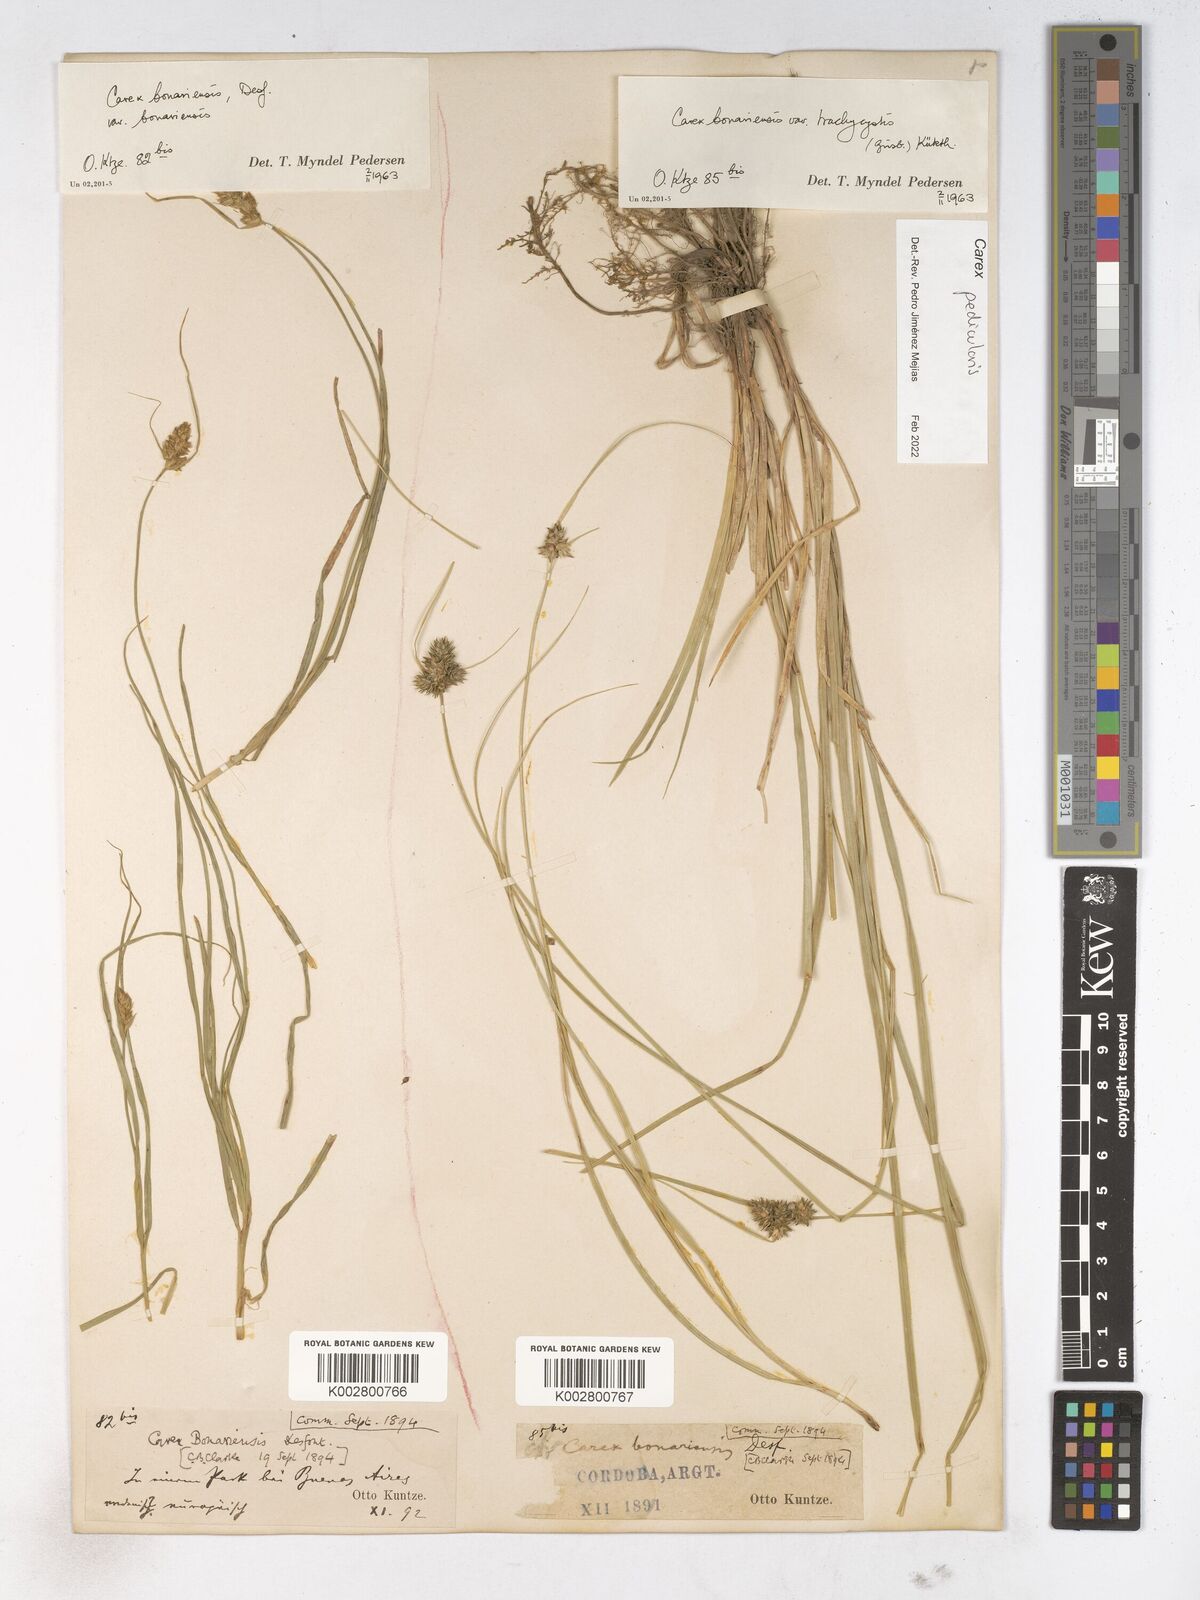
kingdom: Plantae
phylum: Tracheophyta
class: Liliopsida
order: Poales
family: Cyperaceae
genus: Carex
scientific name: Carex bonariensis
